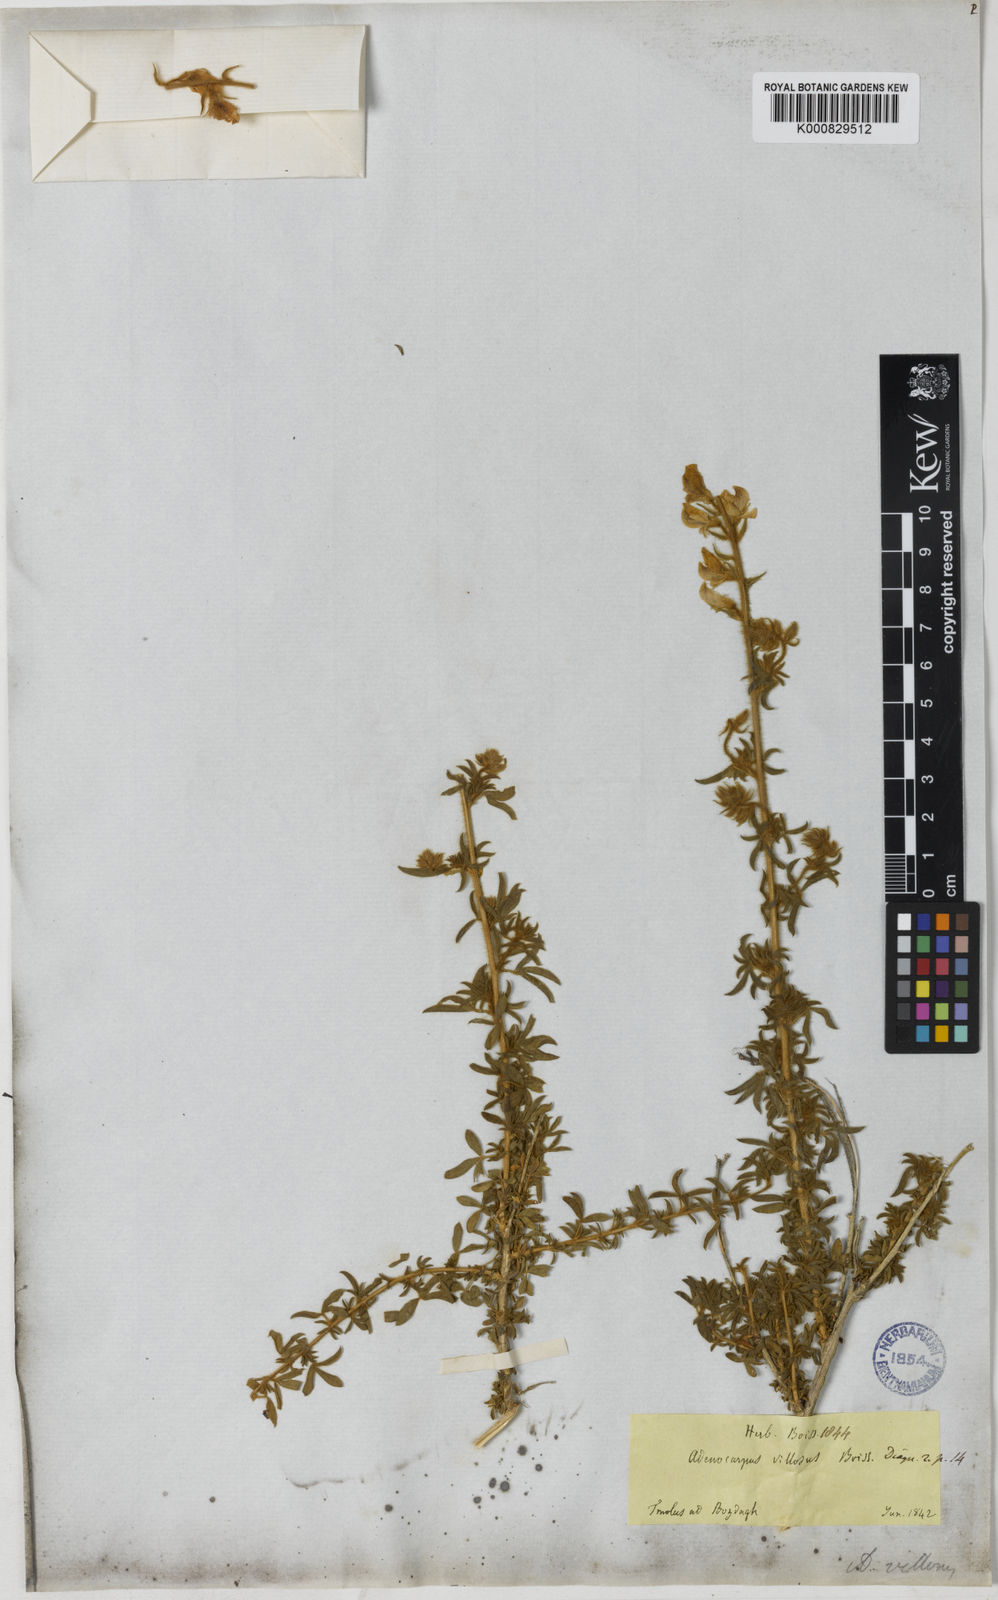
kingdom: Plantae
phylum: Tracheophyta
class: Magnoliopsida
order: Fabales
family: Fabaceae
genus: Adenocarpus
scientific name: Adenocarpus complicatus
